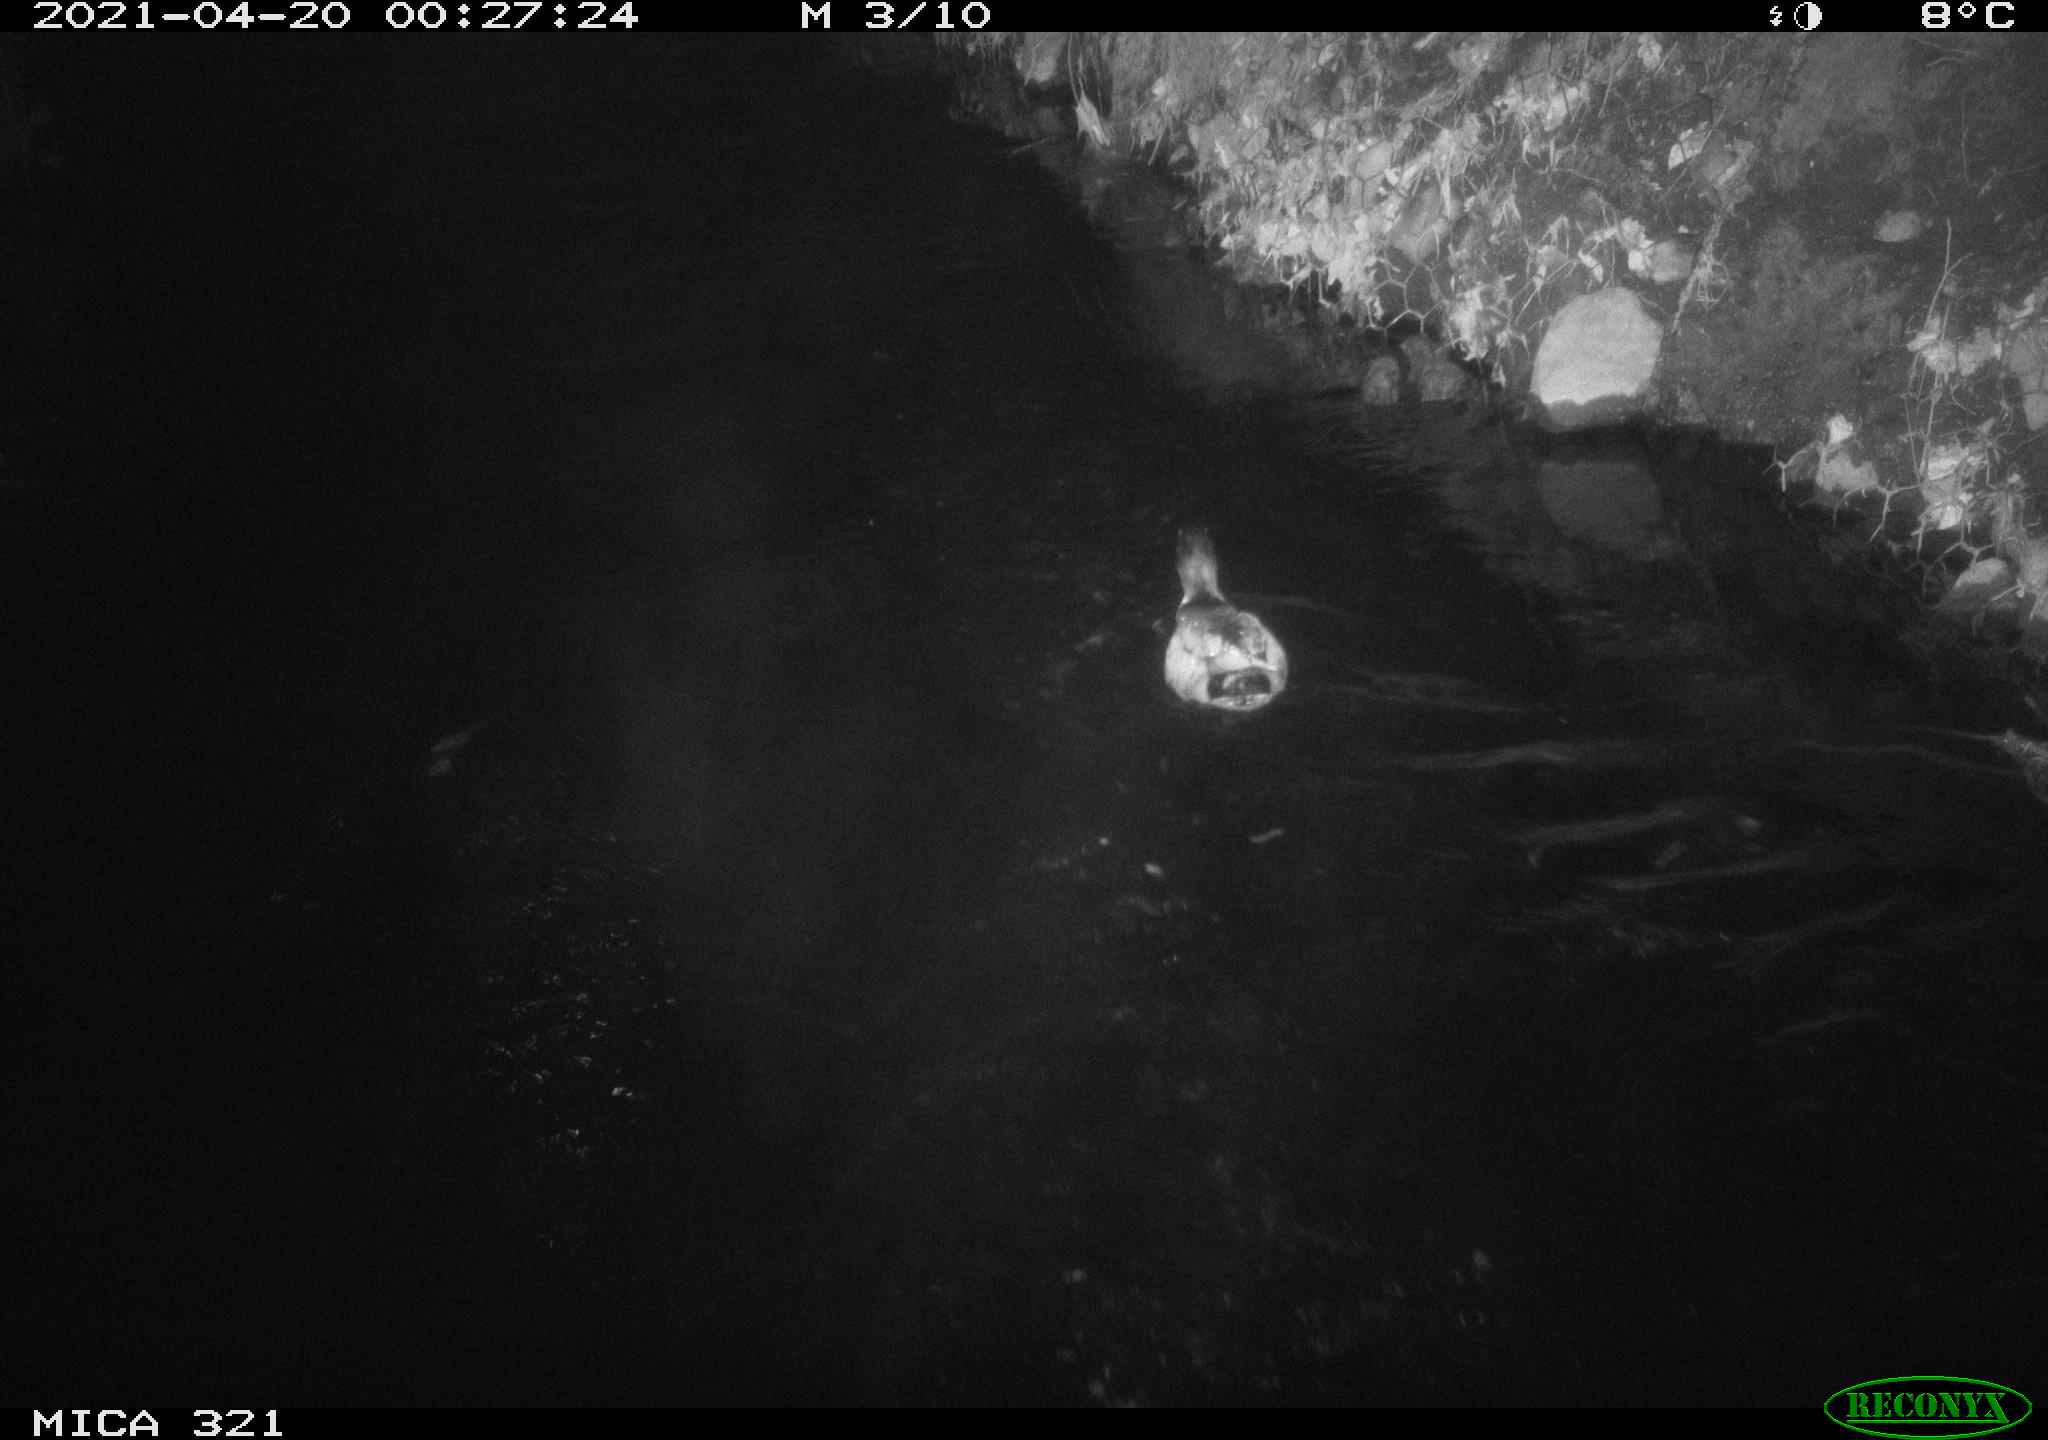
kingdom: Animalia
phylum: Chordata
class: Aves
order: Anseriformes
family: Anatidae
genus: Anas
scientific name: Anas
